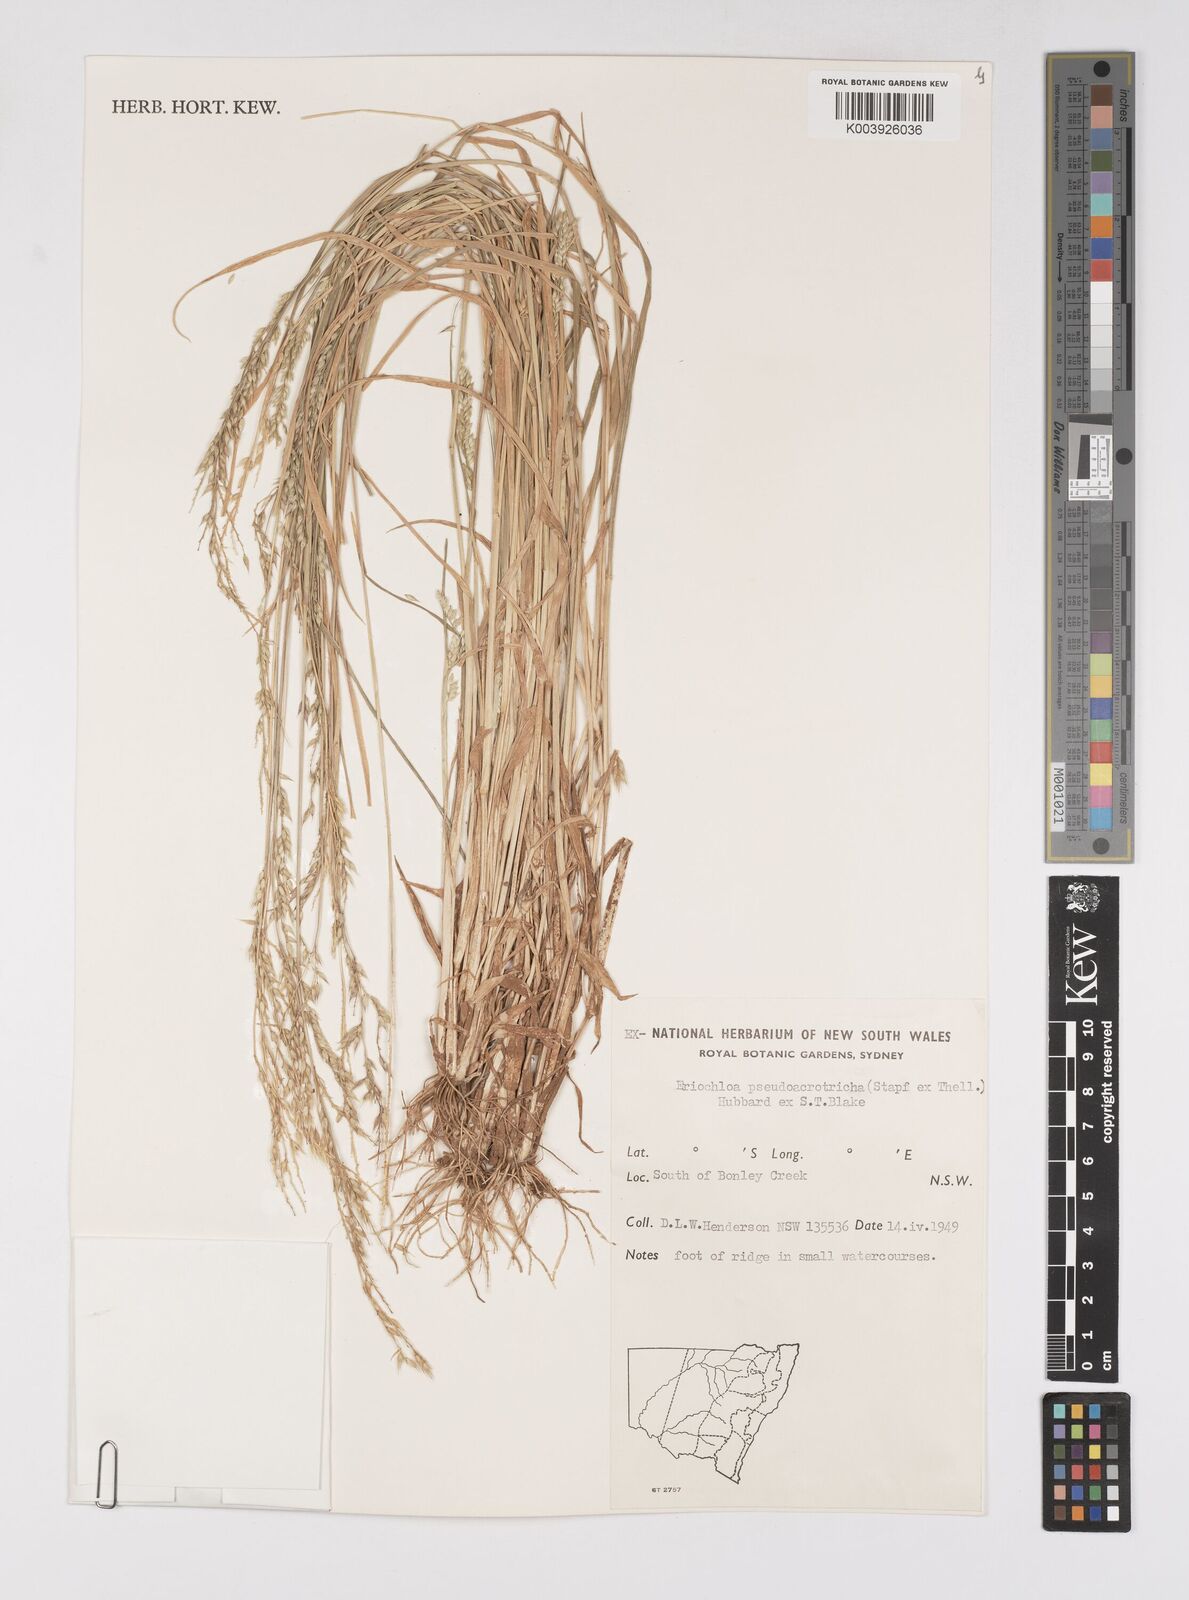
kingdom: Plantae
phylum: Tracheophyta
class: Liliopsida
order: Poales
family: Poaceae
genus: Eriochloa
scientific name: Eriochloa pseudoacrotricha
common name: Perennial cup-grass
